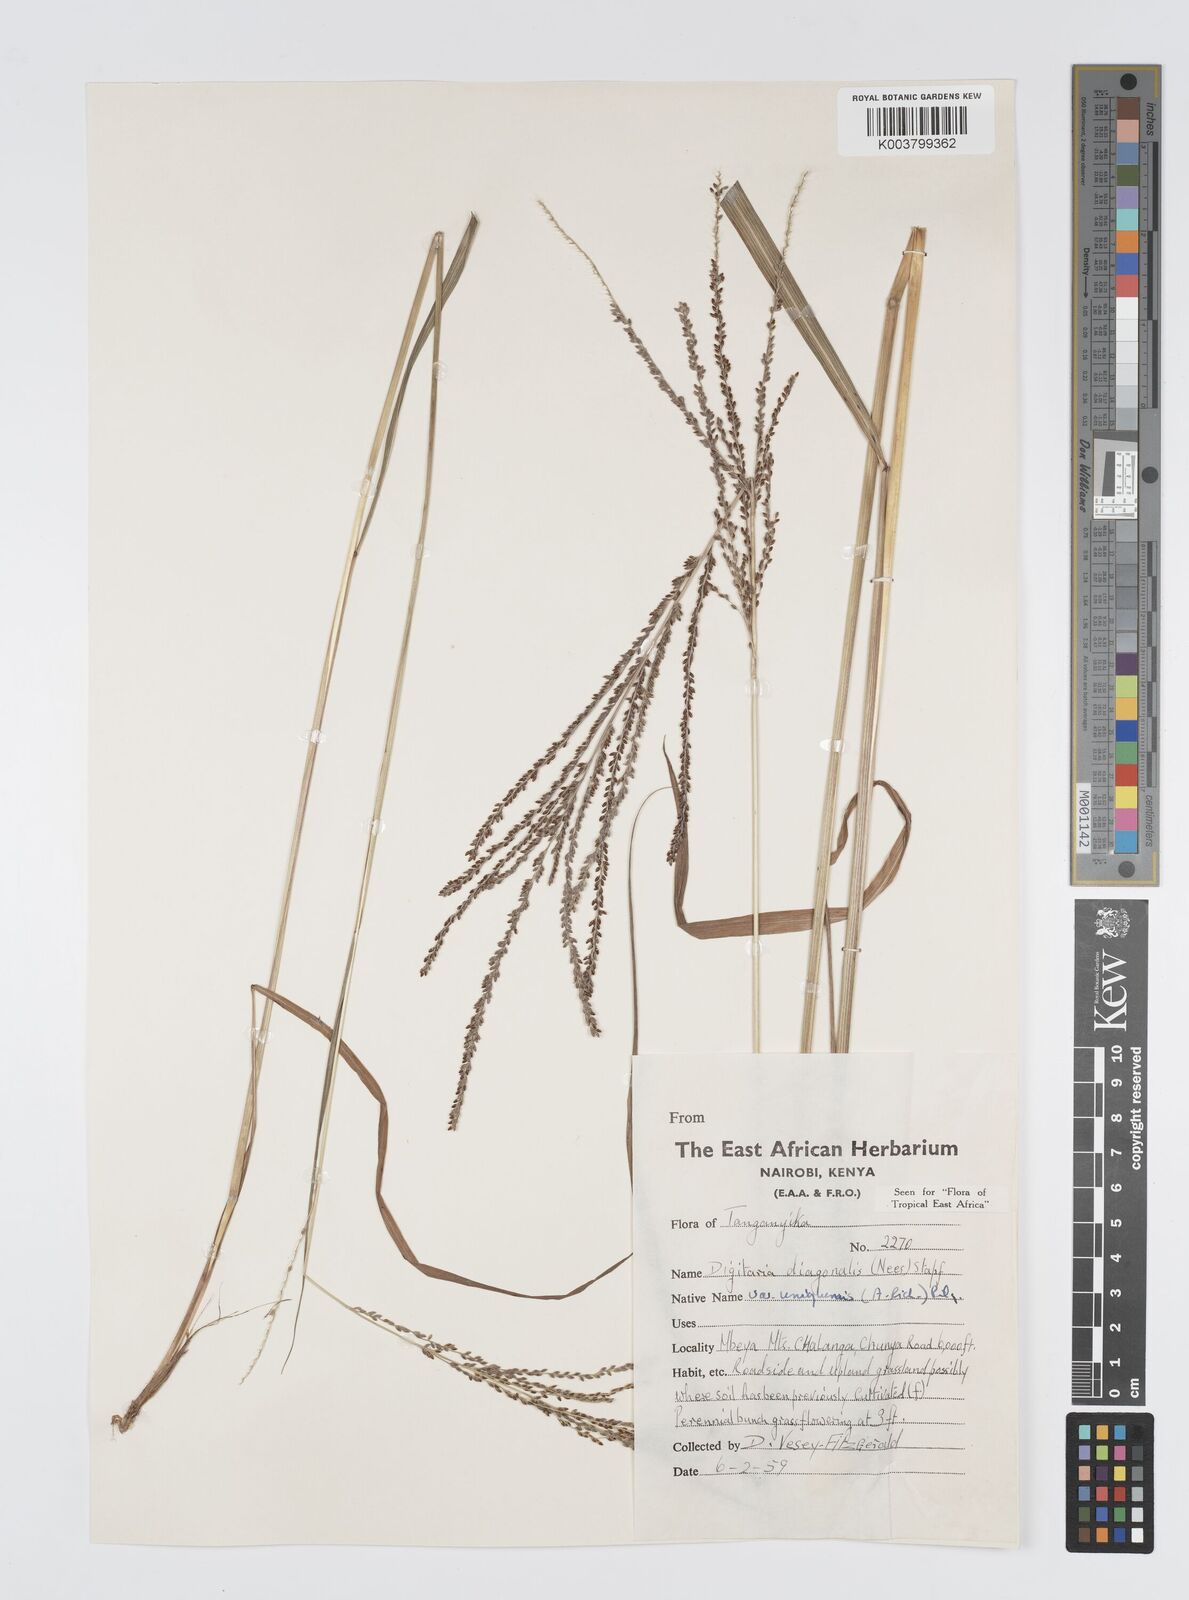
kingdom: Plantae
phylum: Tracheophyta
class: Liliopsida
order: Poales
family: Poaceae
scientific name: Poaceae
